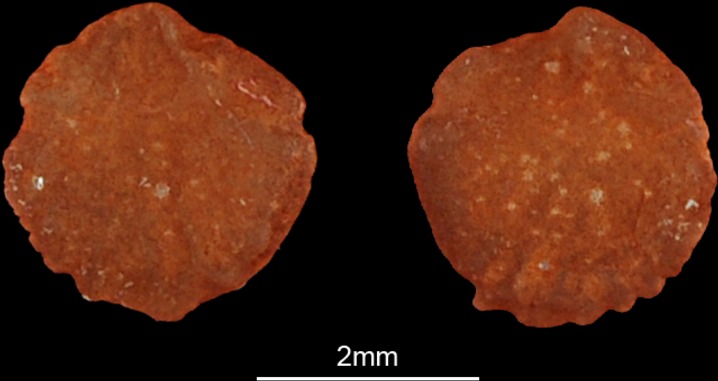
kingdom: Animalia
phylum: Chordata
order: Atheriniformes
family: Atherinidae
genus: Atherinomorus
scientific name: Atherinomorus lacunosus
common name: Hardyhead silverside
